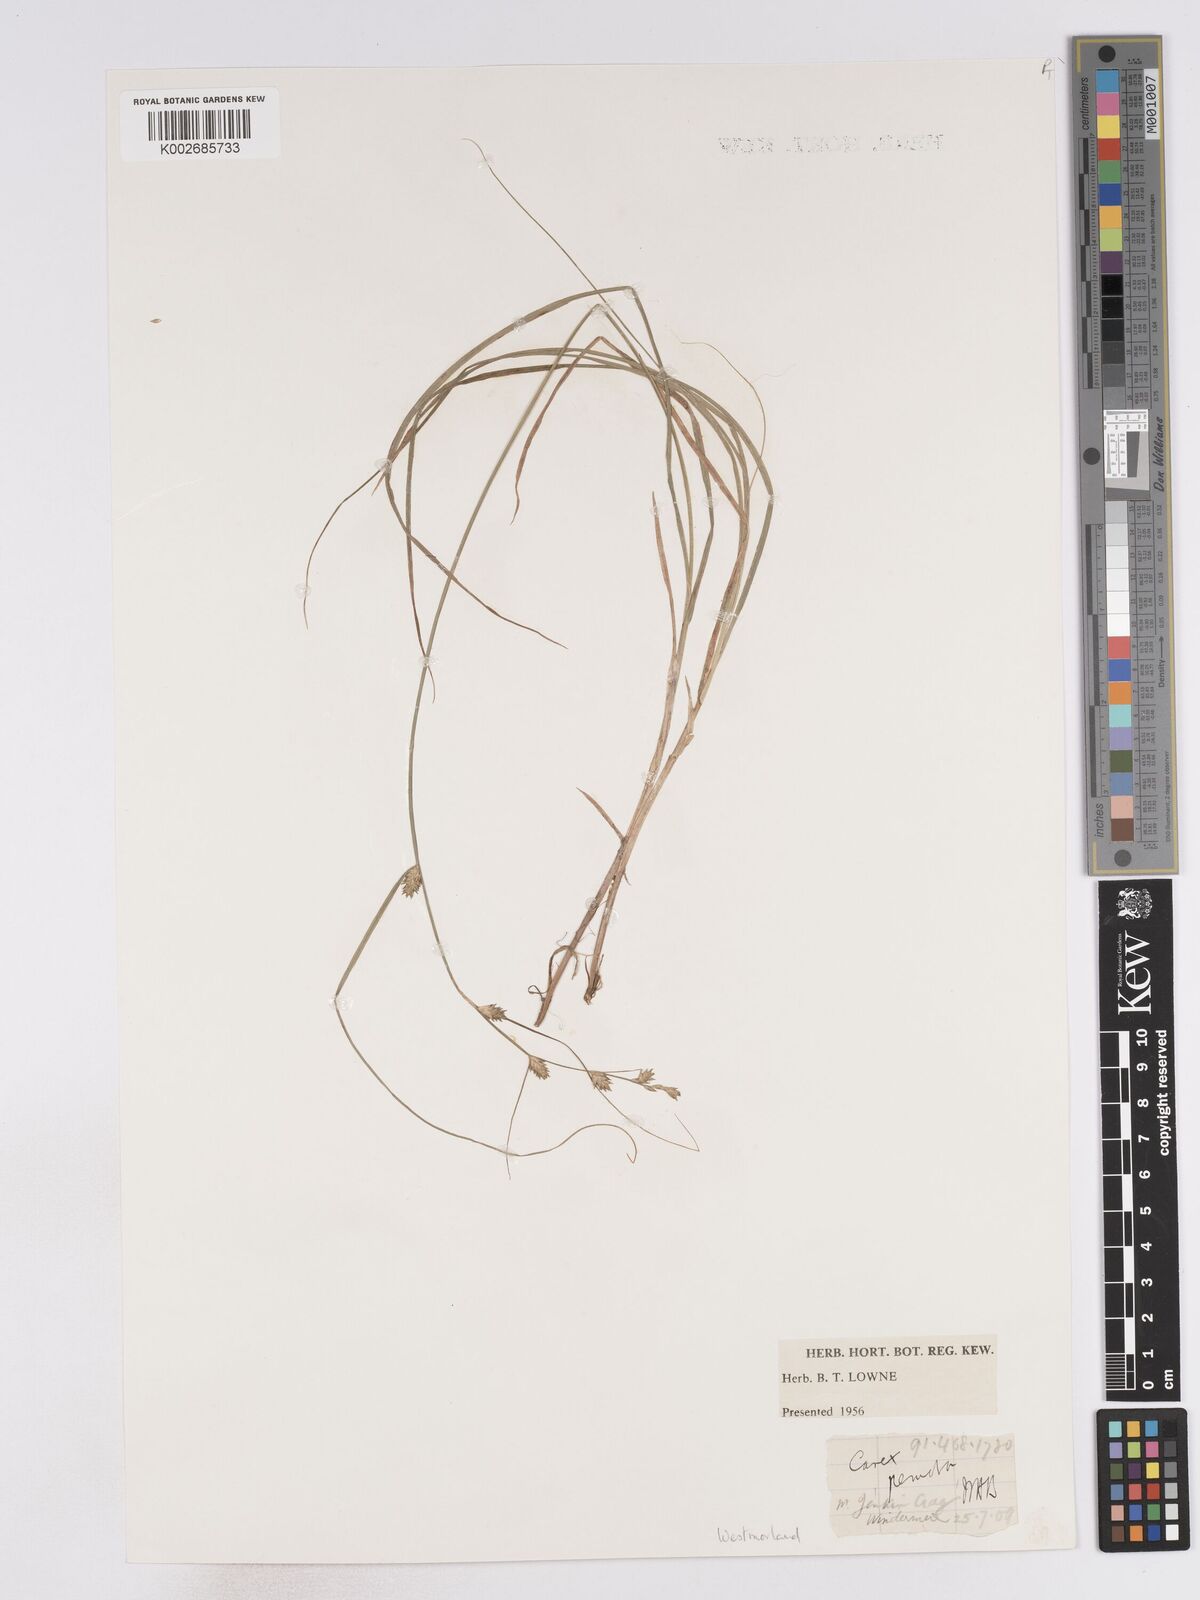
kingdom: Plantae
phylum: Tracheophyta
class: Liliopsida
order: Poales
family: Cyperaceae
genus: Carex
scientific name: Carex remota
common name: Remote sedge
